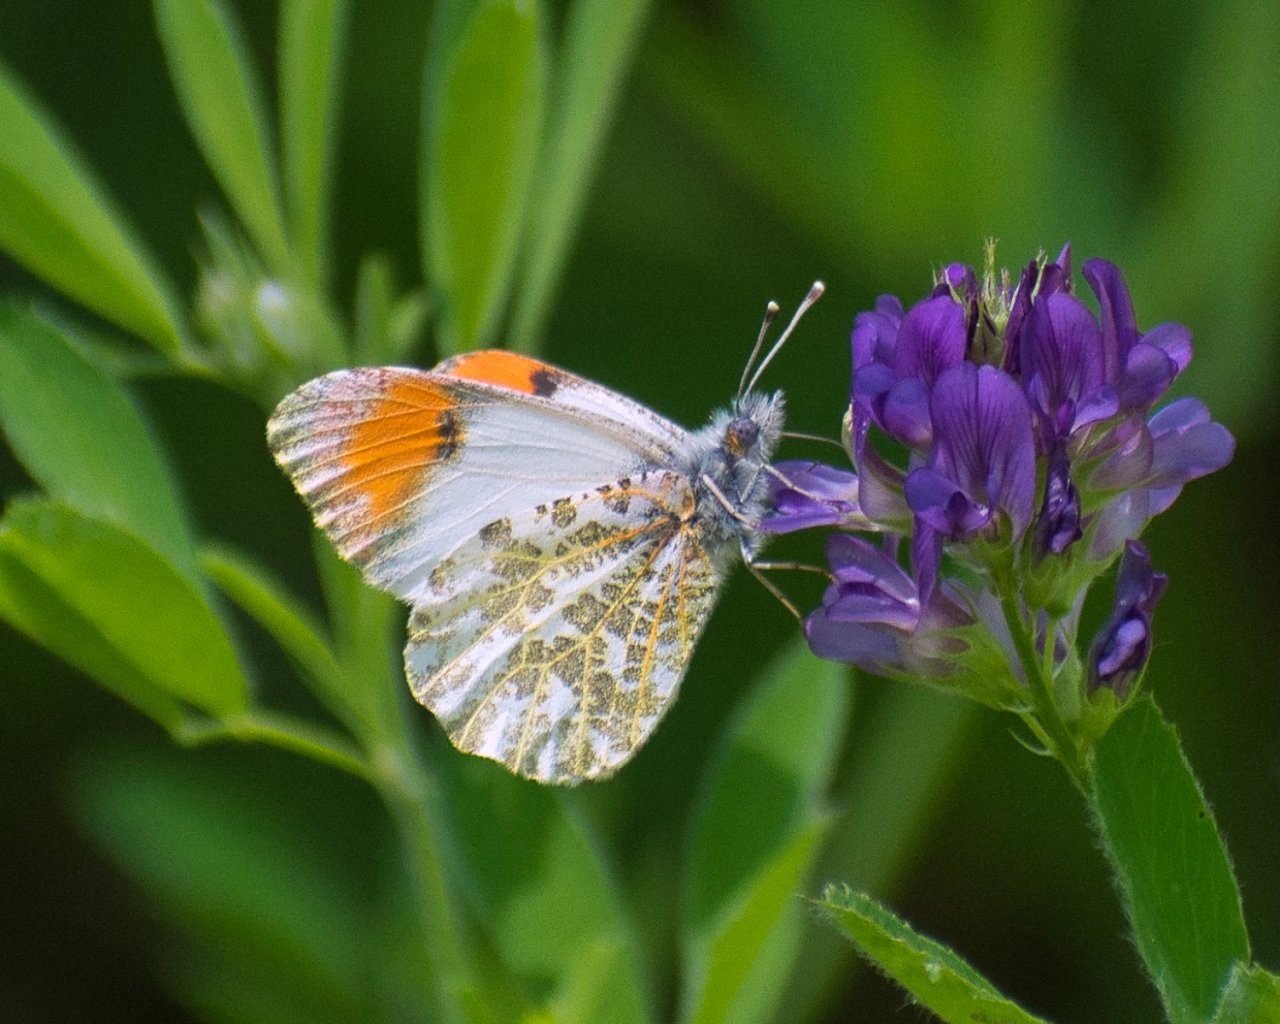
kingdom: Animalia
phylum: Arthropoda
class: Insecta
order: Lepidoptera
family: Pieridae
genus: Anthocharis
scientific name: Anthocharis sara
